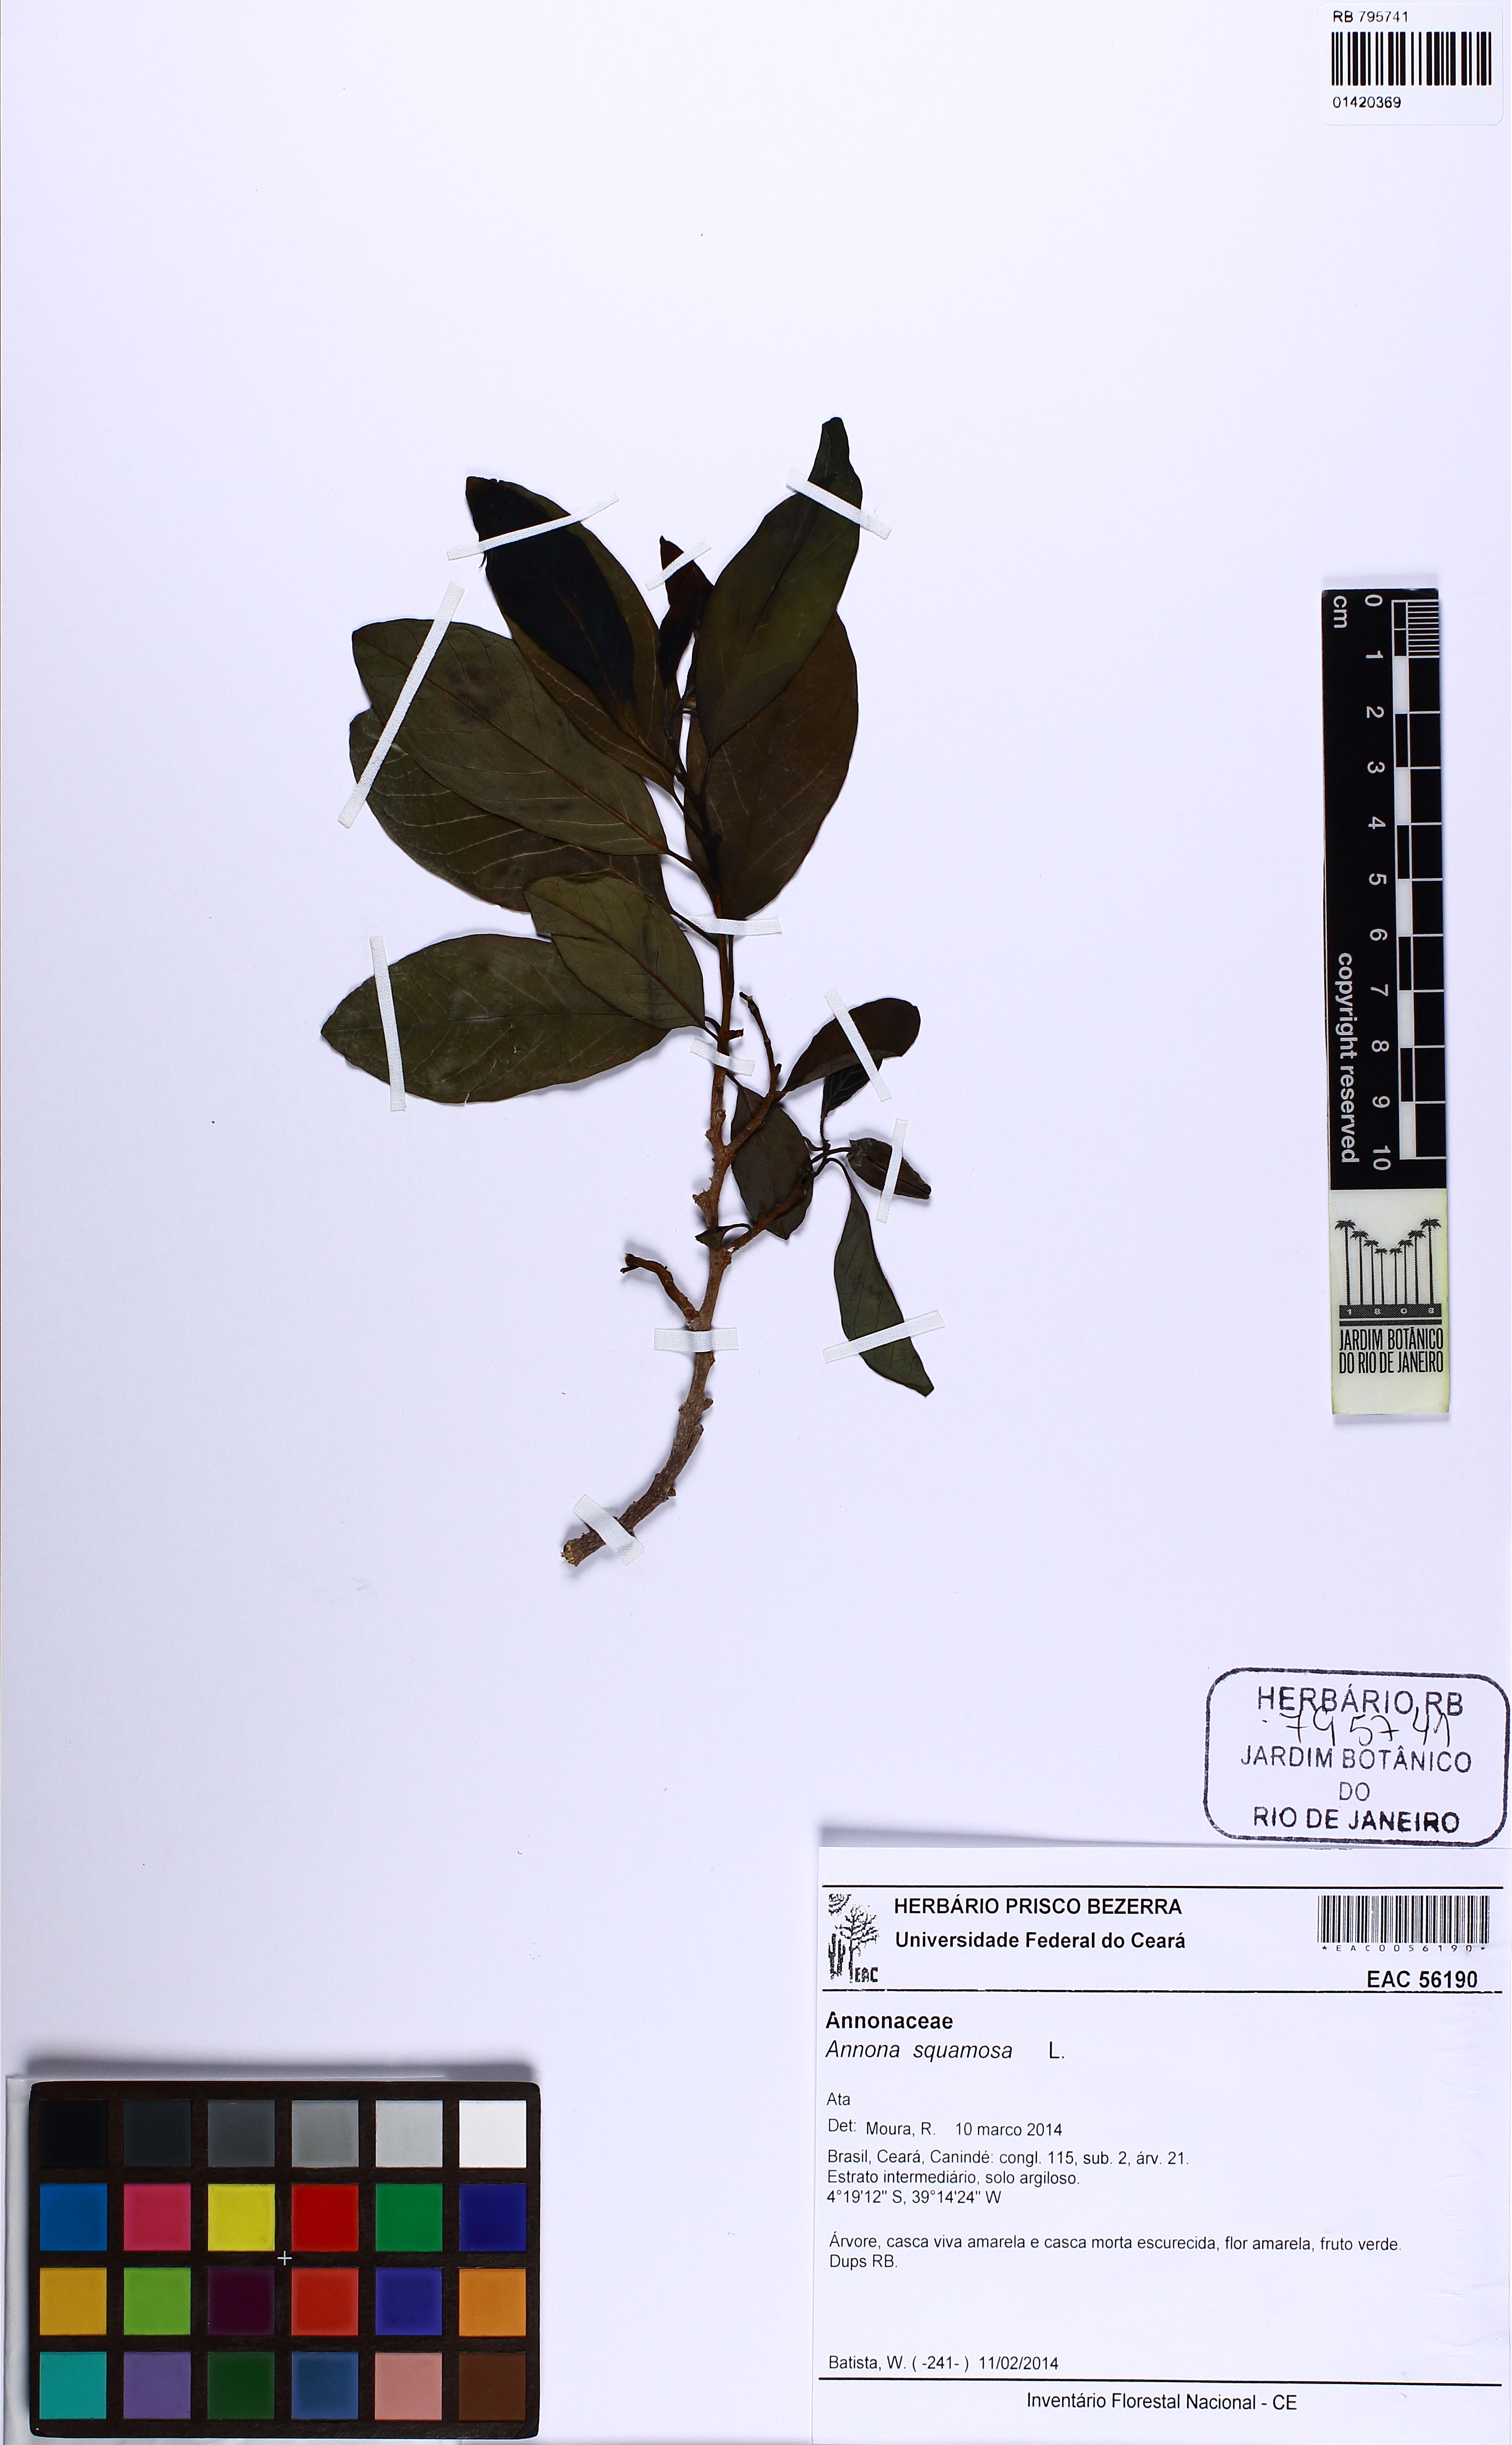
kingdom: Plantae
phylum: Tracheophyta
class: Magnoliopsida
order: Magnoliales
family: Annonaceae
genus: Annona
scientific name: Annona squamosa
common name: Custard-apple
